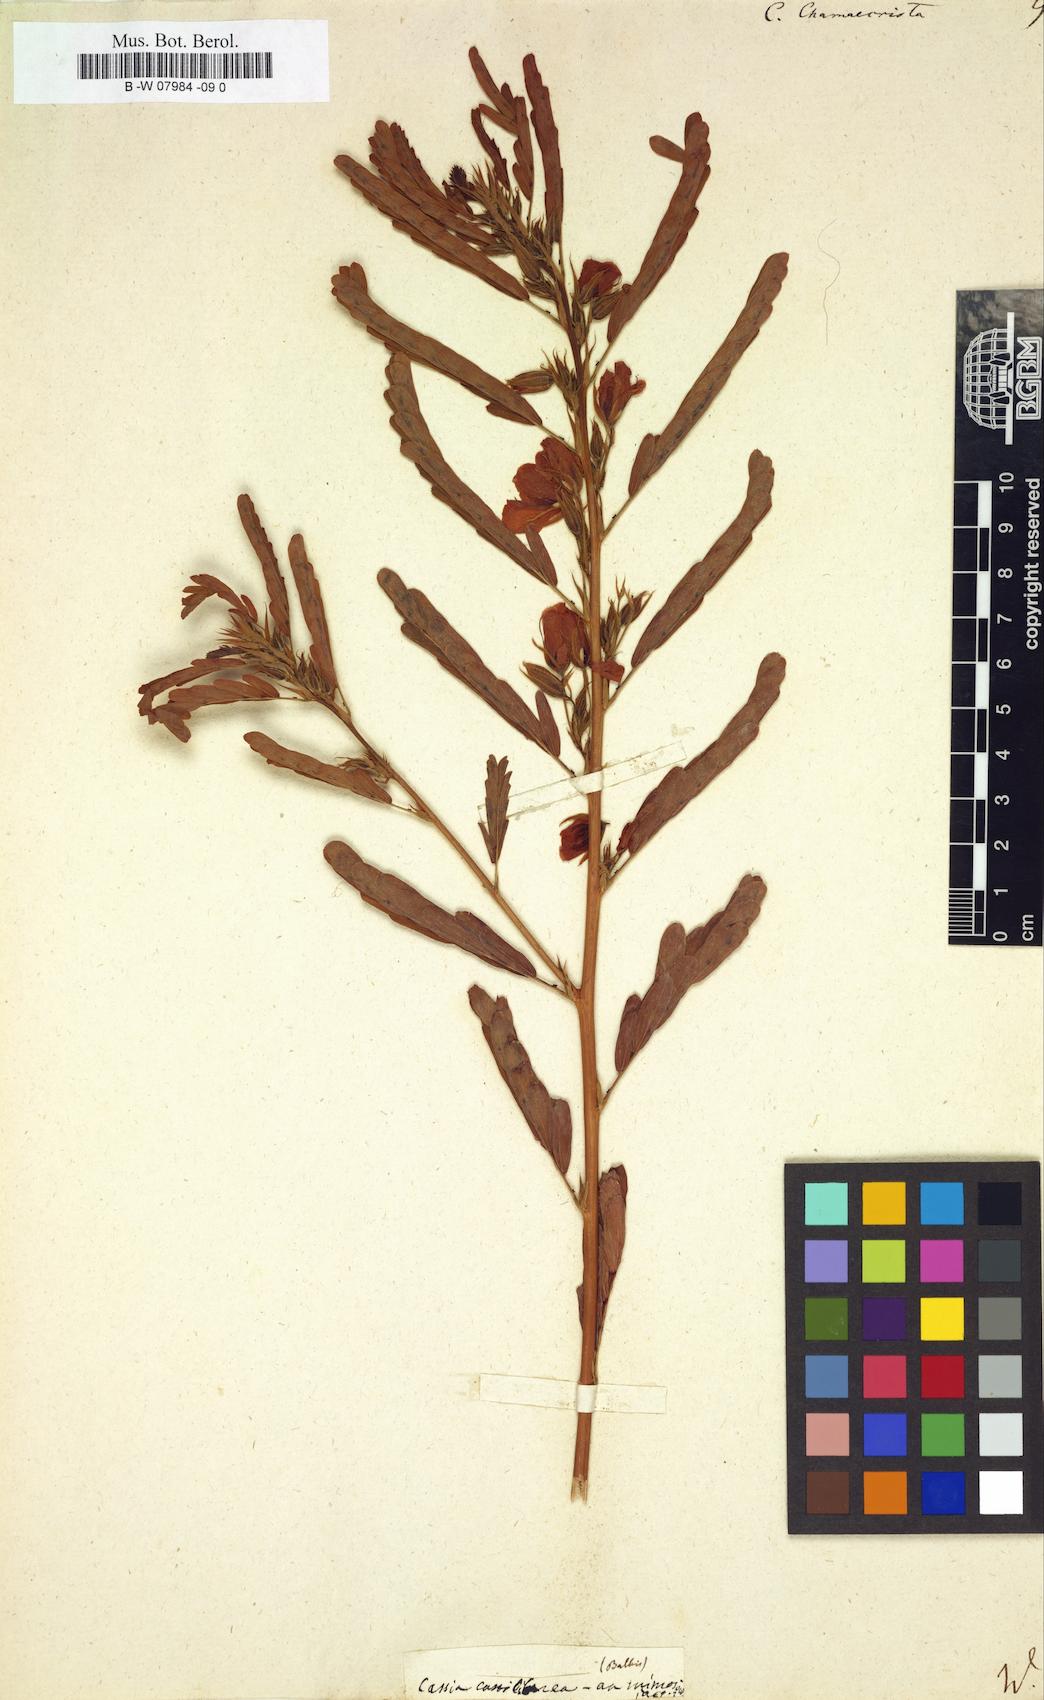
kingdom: Plantae
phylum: Tracheophyta
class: Magnoliopsida
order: Fabales
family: Fabaceae
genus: Chamaecrista
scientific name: Chamaecrista
